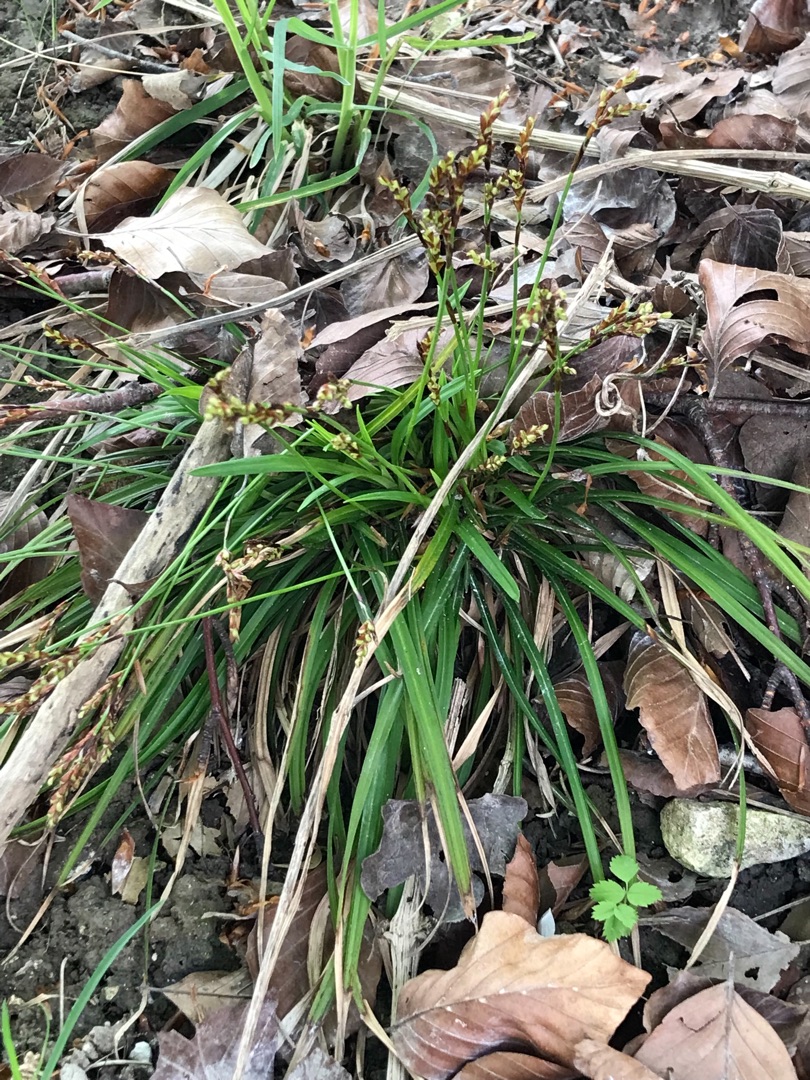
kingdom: Plantae
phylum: Tracheophyta
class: Liliopsida
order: Poales
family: Cyperaceae
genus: Carex
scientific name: Carex digitata
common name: Finger-star
